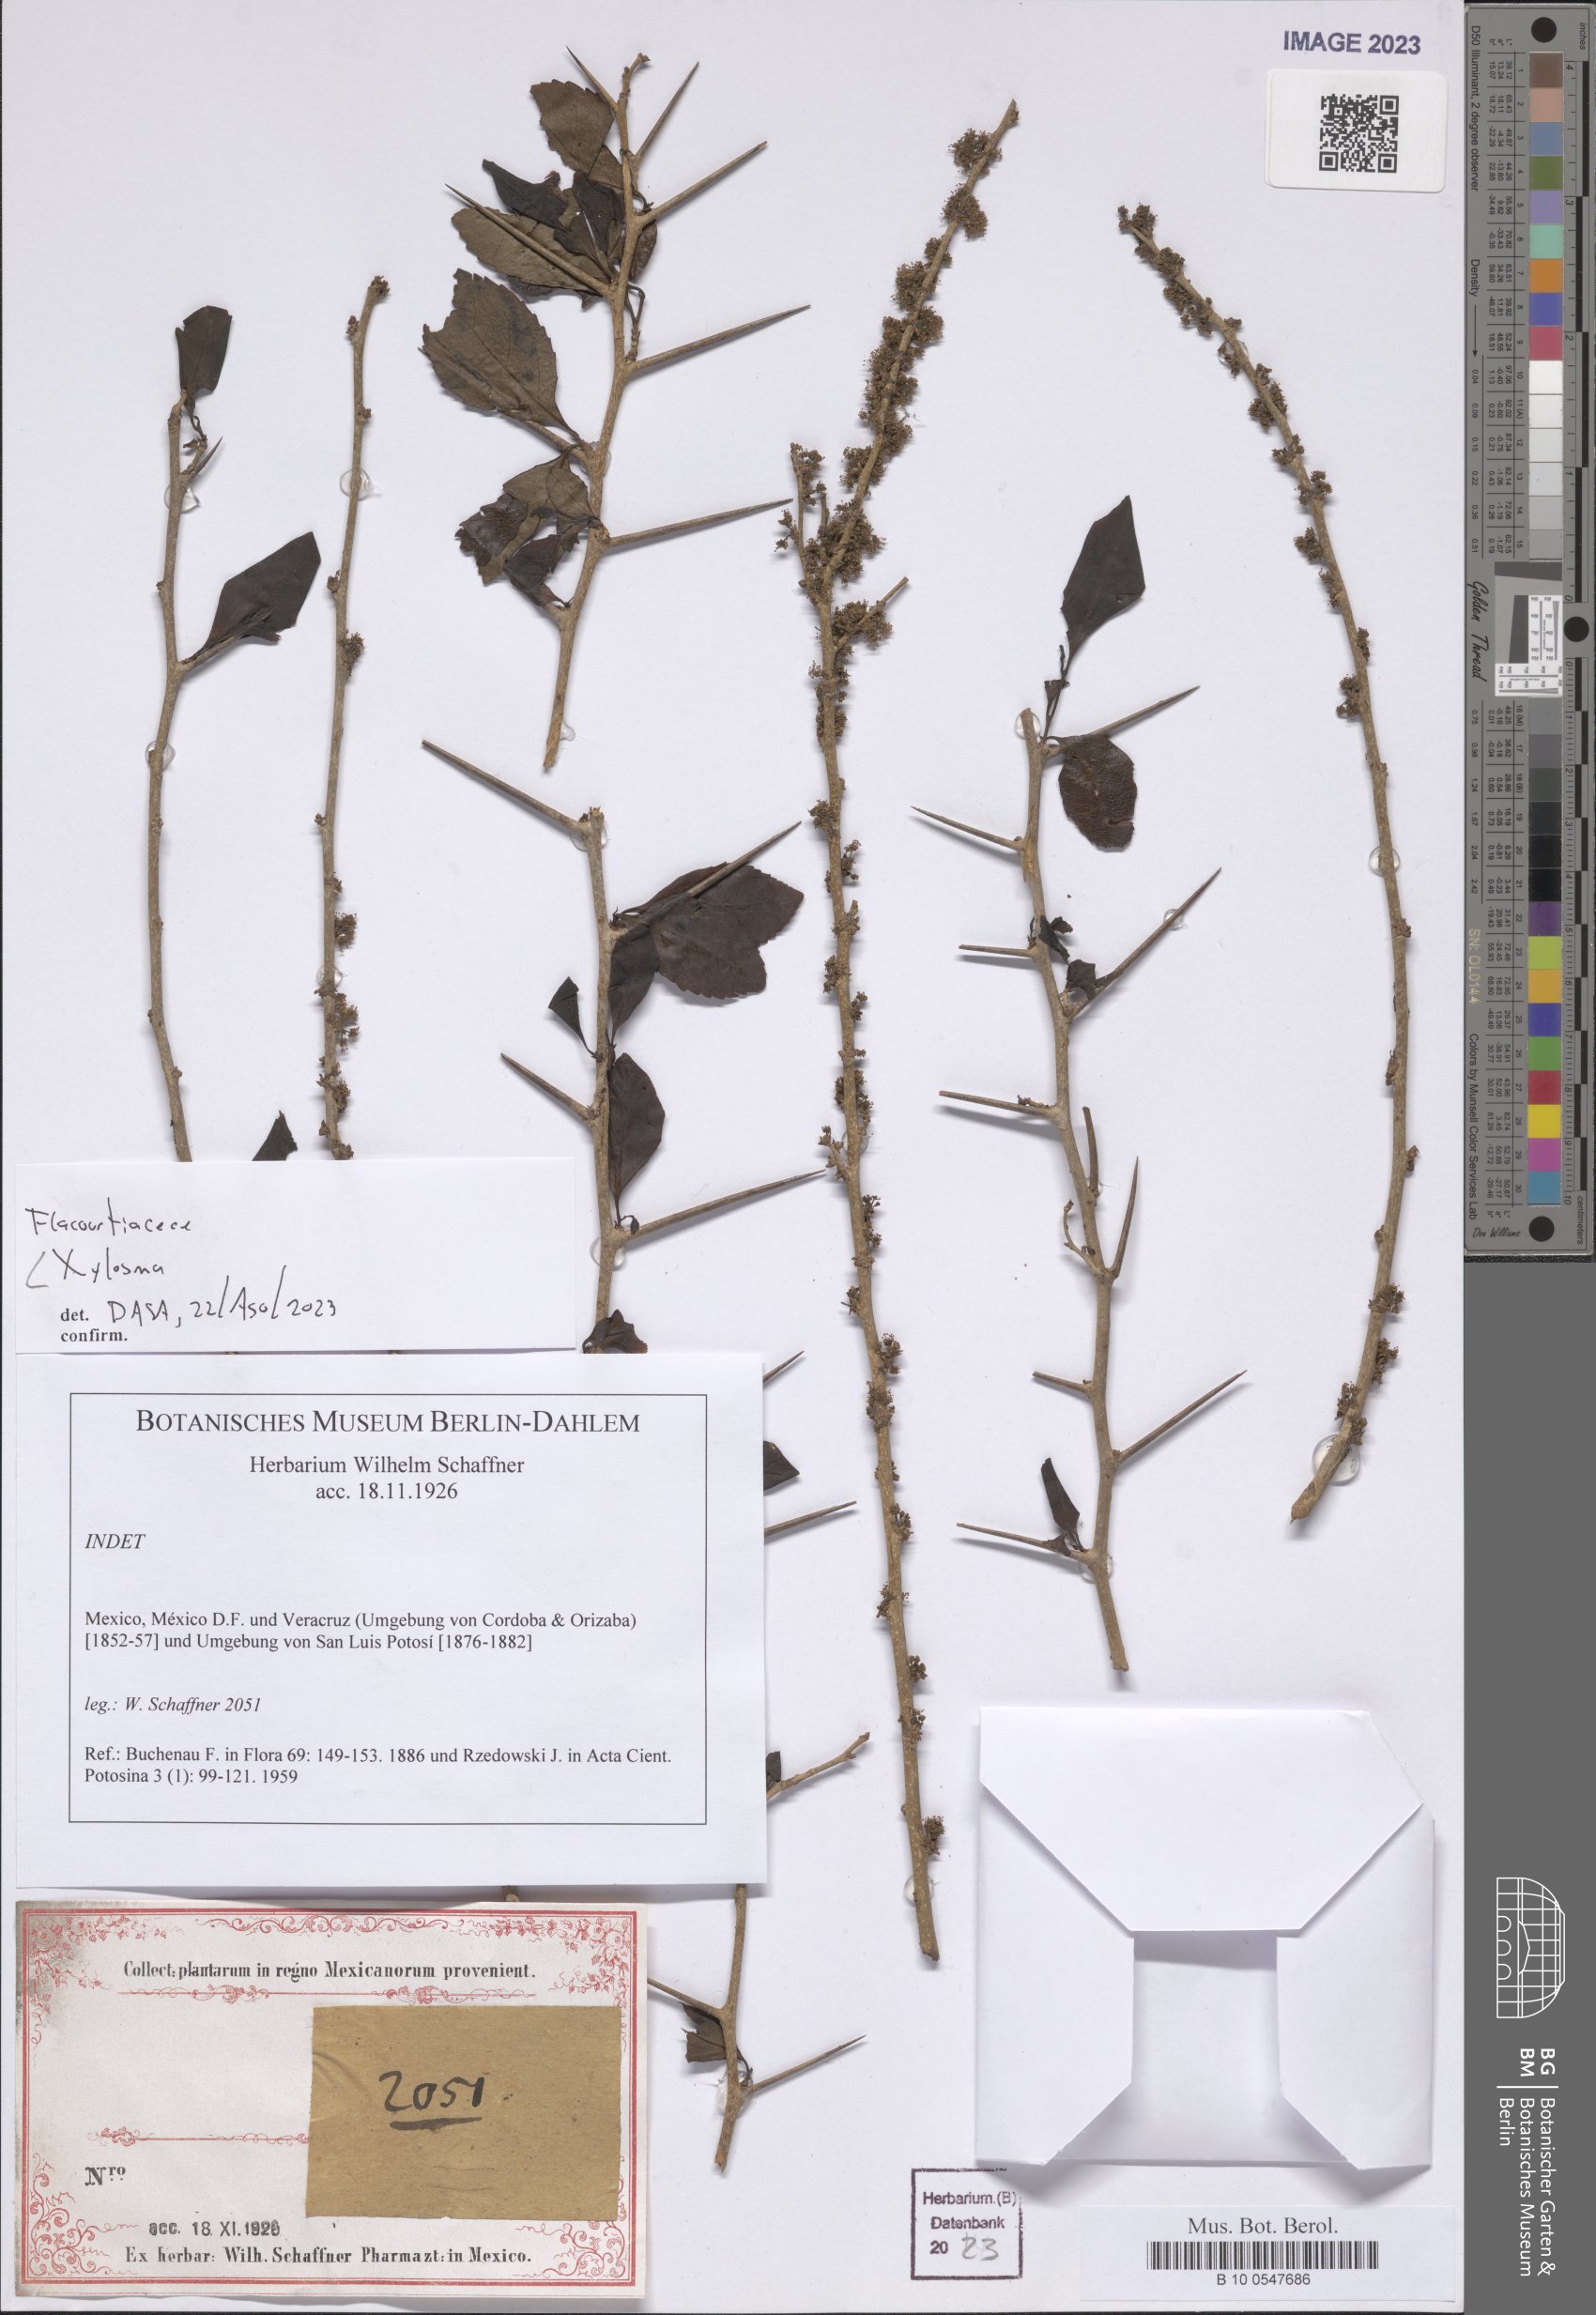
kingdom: Plantae
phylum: Tracheophyta
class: Magnoliopsida
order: Malpighiales
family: Salicaceae
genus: Xylosma
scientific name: Xylosma
